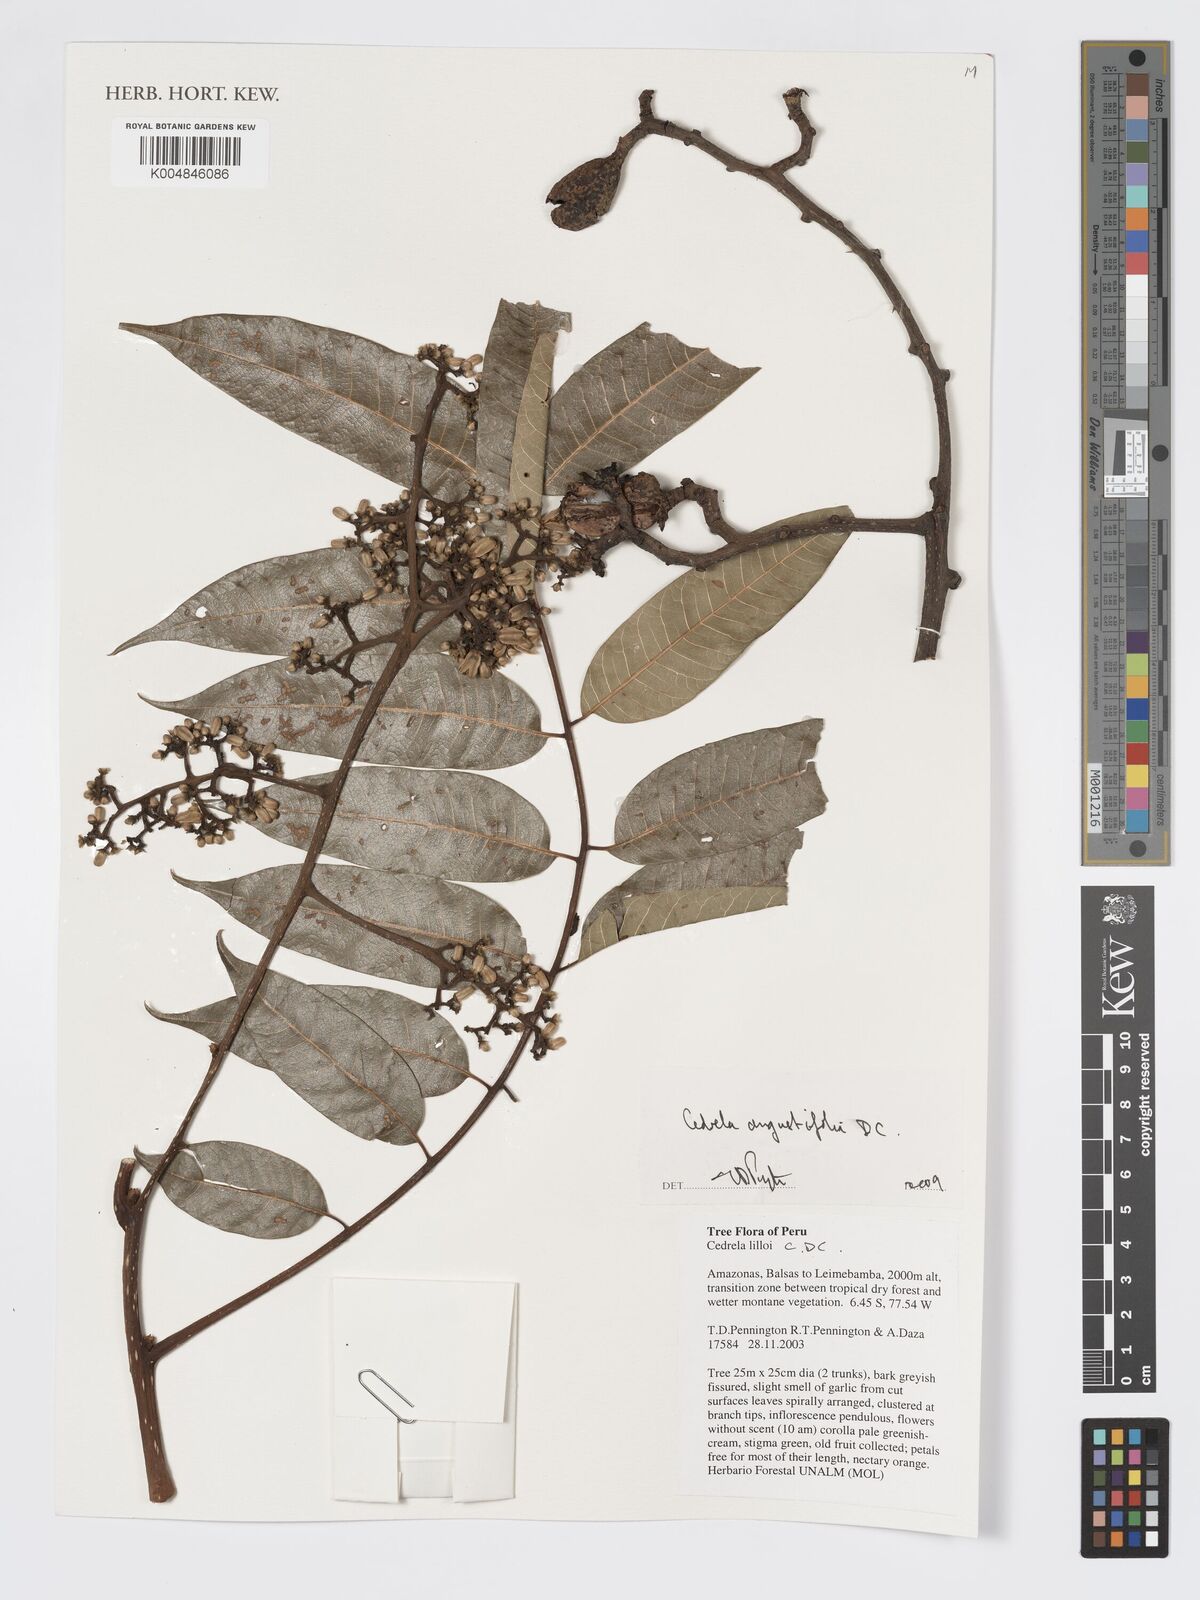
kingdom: Plantae
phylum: Tracheophyta
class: Magnoliopsida
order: Sapindales
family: Meliaceae
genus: Cedrela
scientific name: Cedrela odorata
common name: Red cedar
